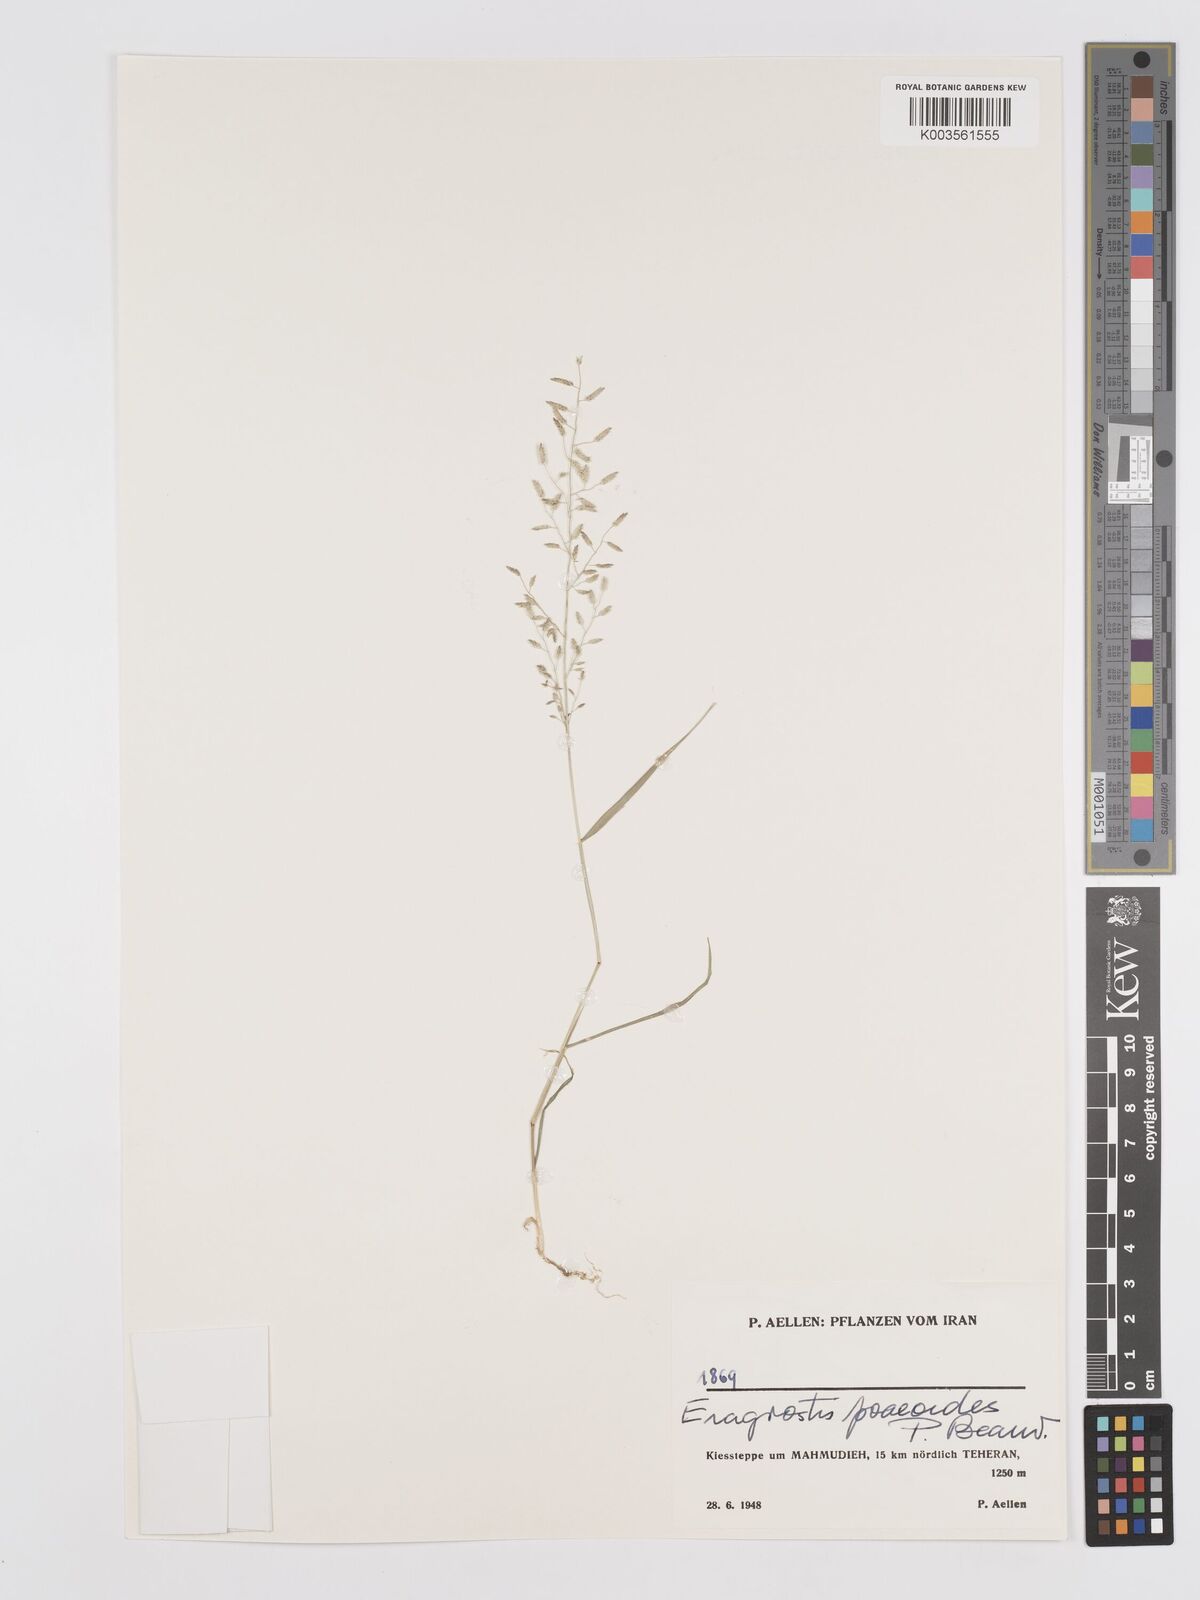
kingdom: Plantae
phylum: Tracheophyta
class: Liliopsida
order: Poales
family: Poaceae
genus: Eragrostis
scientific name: Eragrostis minor
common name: Small love-grass
